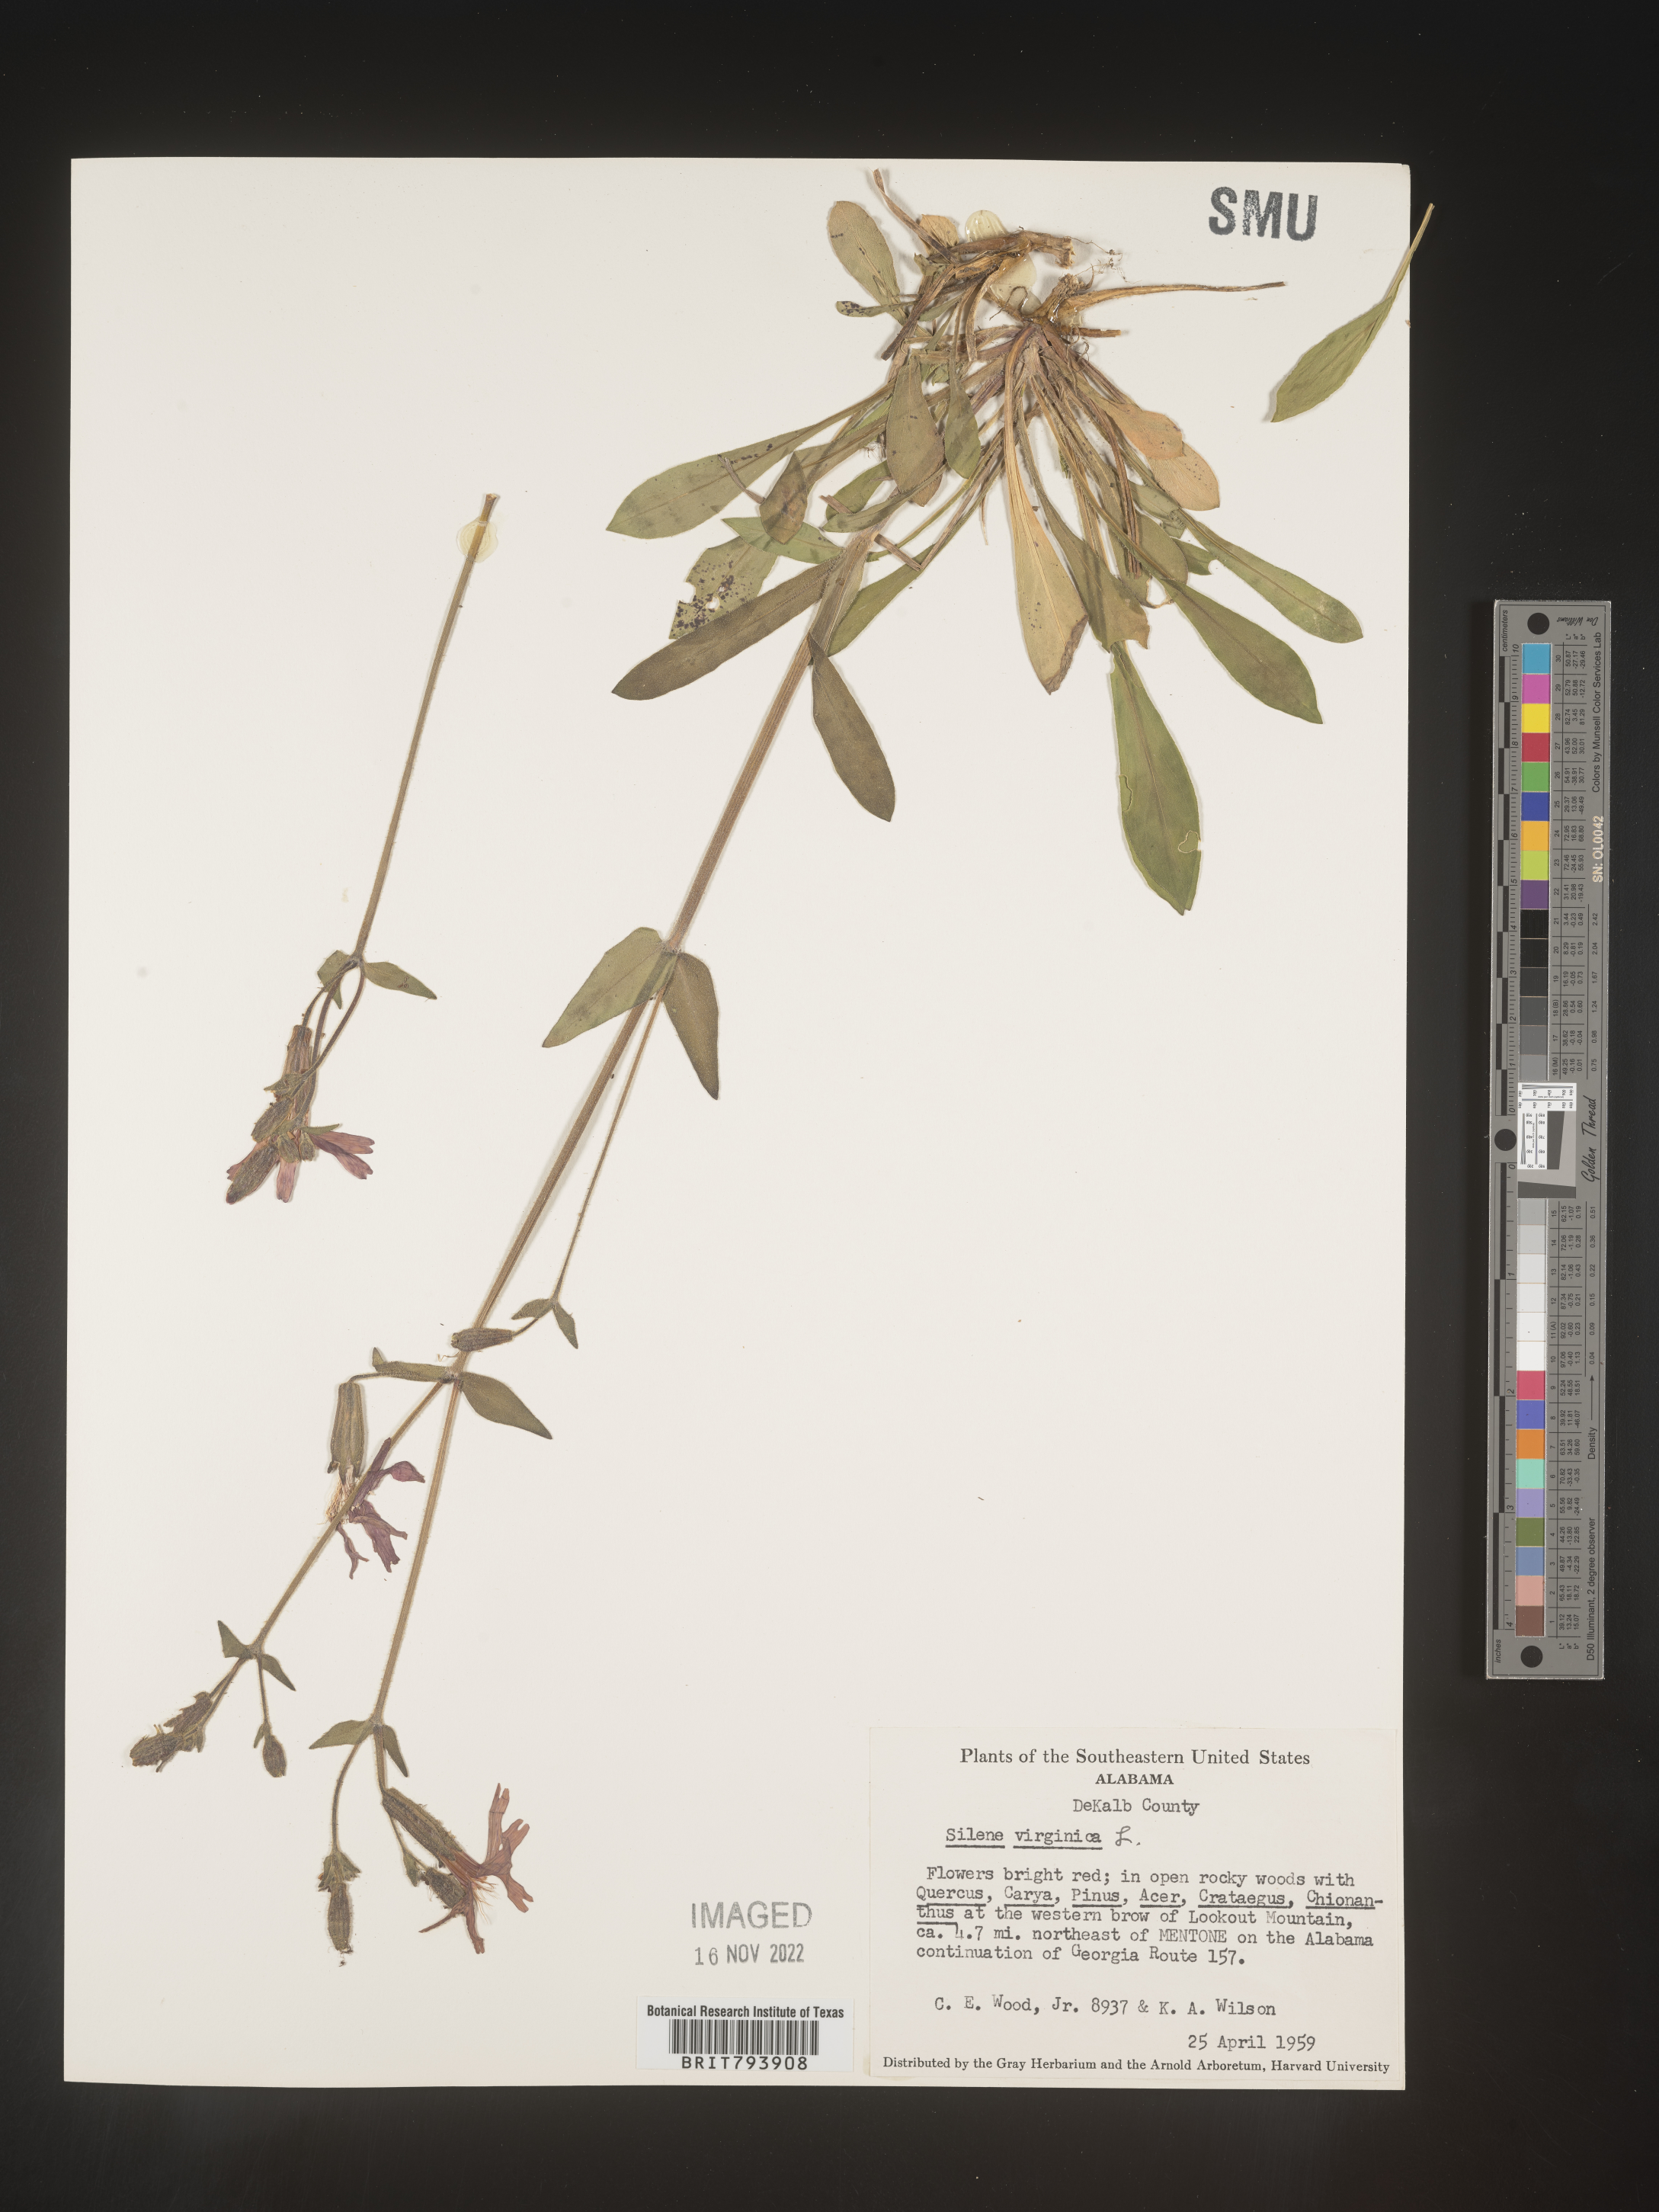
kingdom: Plantae
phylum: Tracheophyta
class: Magnoliopsida
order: Caryophyllales
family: Caryophyllaceae
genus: Silene
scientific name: Silene virginica
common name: Fire-pink
